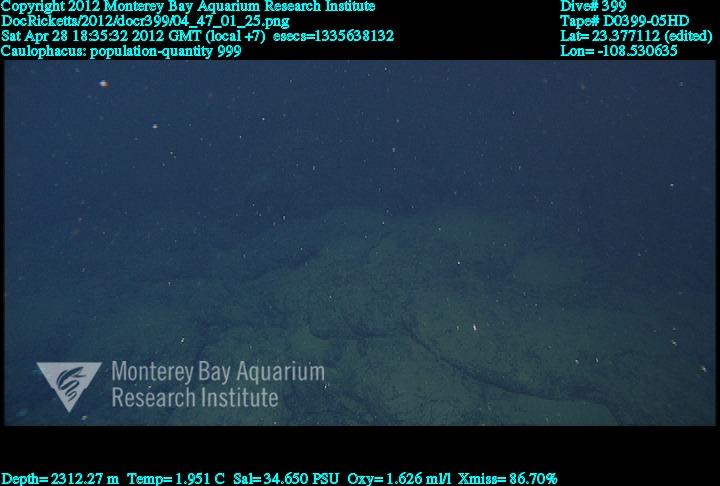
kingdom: Animalia
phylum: Porifera
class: Hexactinellida
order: Lyssacinosida
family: Rossellidae
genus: Caulophacus
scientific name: Caulophacus
